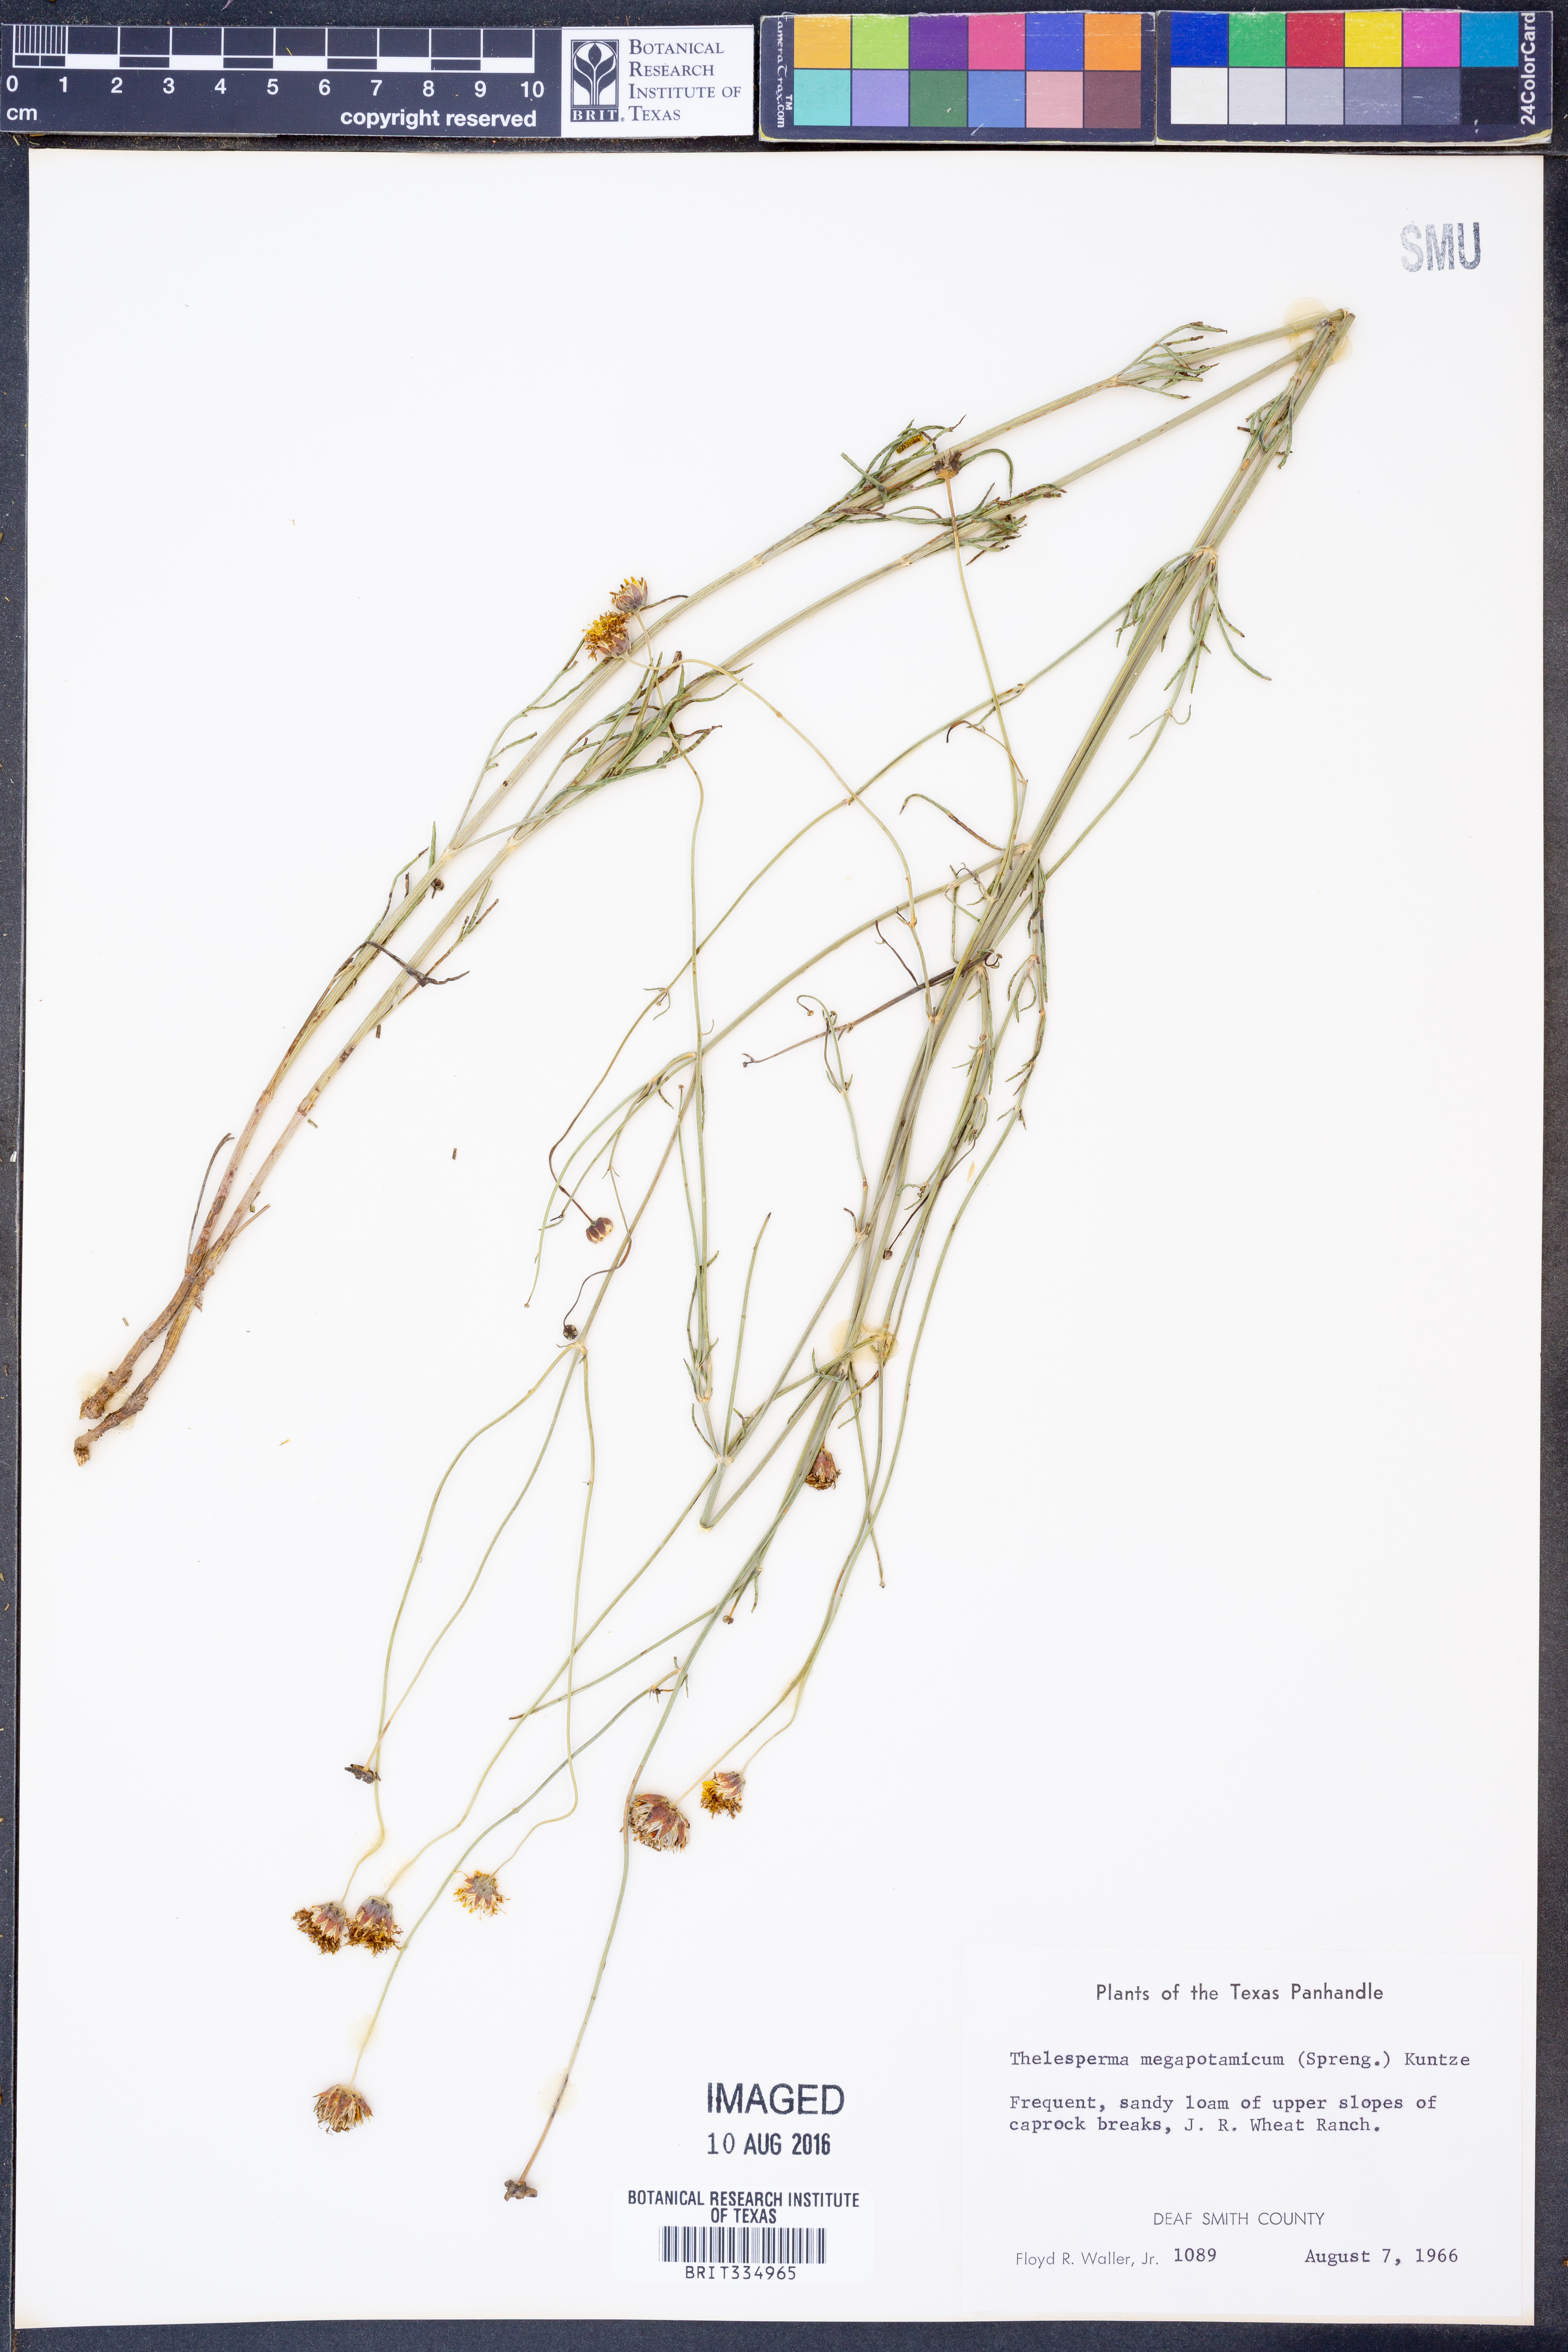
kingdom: Plantae
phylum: Tracheophyta
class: Magnoliopsida
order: Asterales
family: Asteraceae
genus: Thelesperma
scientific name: Thelesperma megapotamicum
